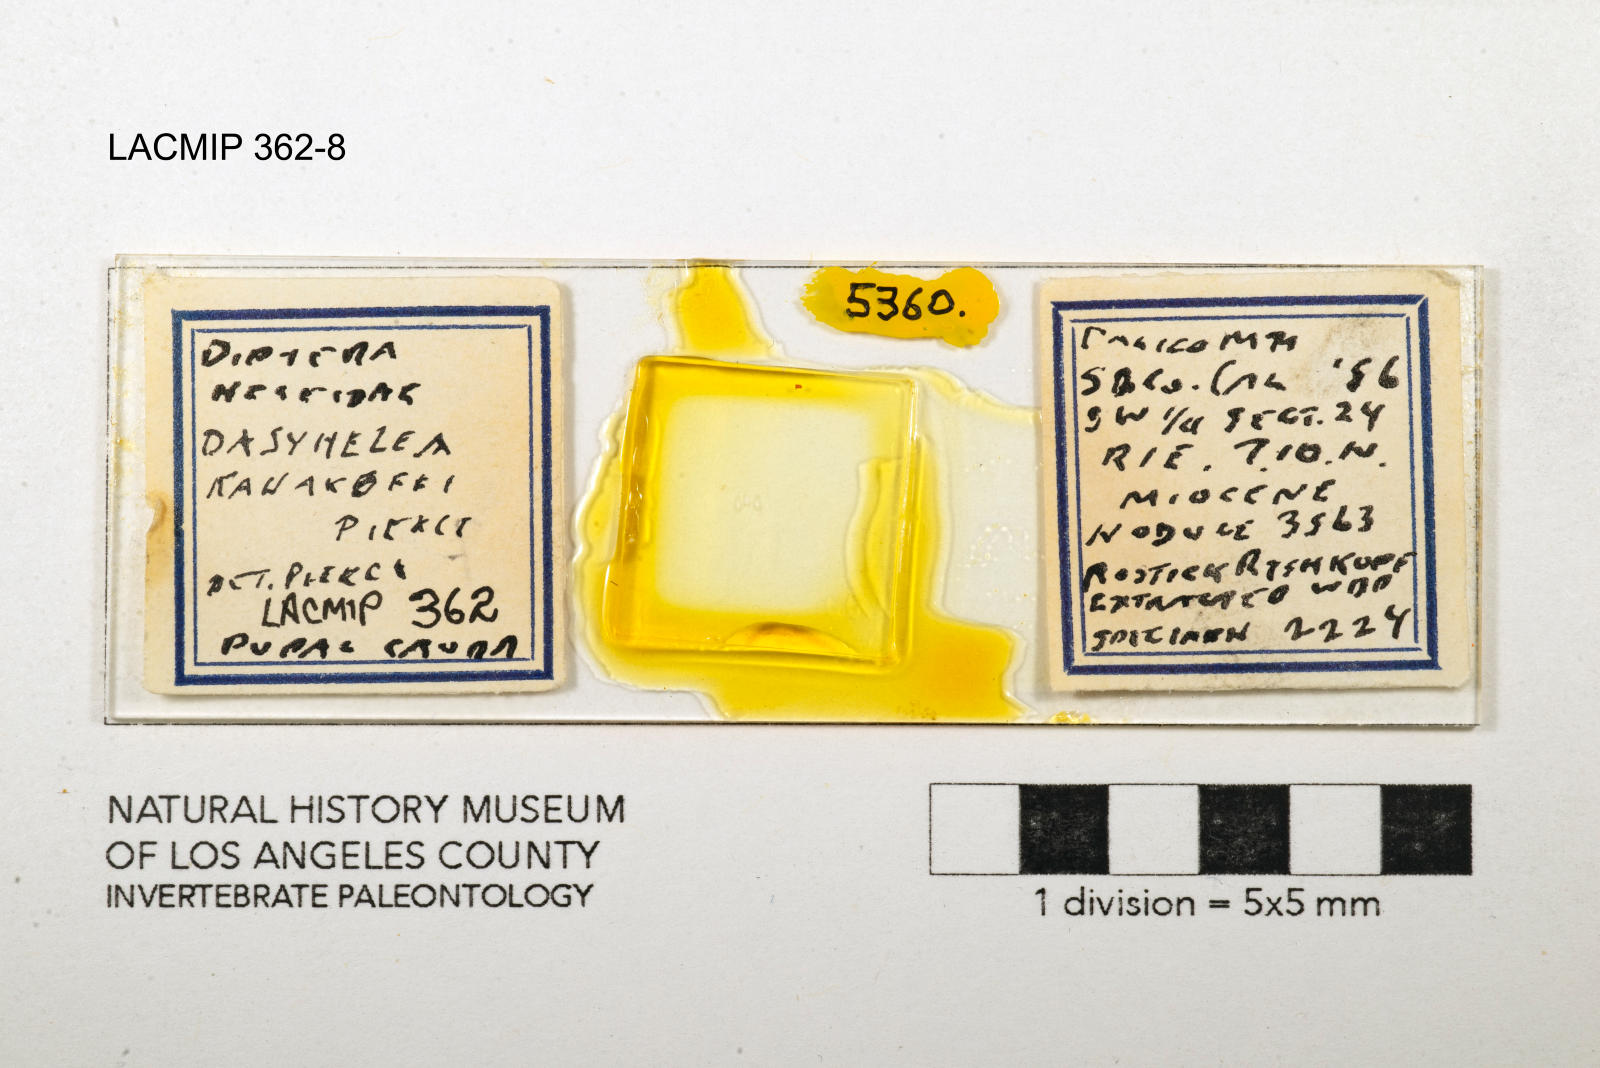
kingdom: Animalia
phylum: Arthropoda
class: Insecta
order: Diptera
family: Ceratopogonidae
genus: Dasyhelea
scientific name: Dasyhelea kanakoffi
